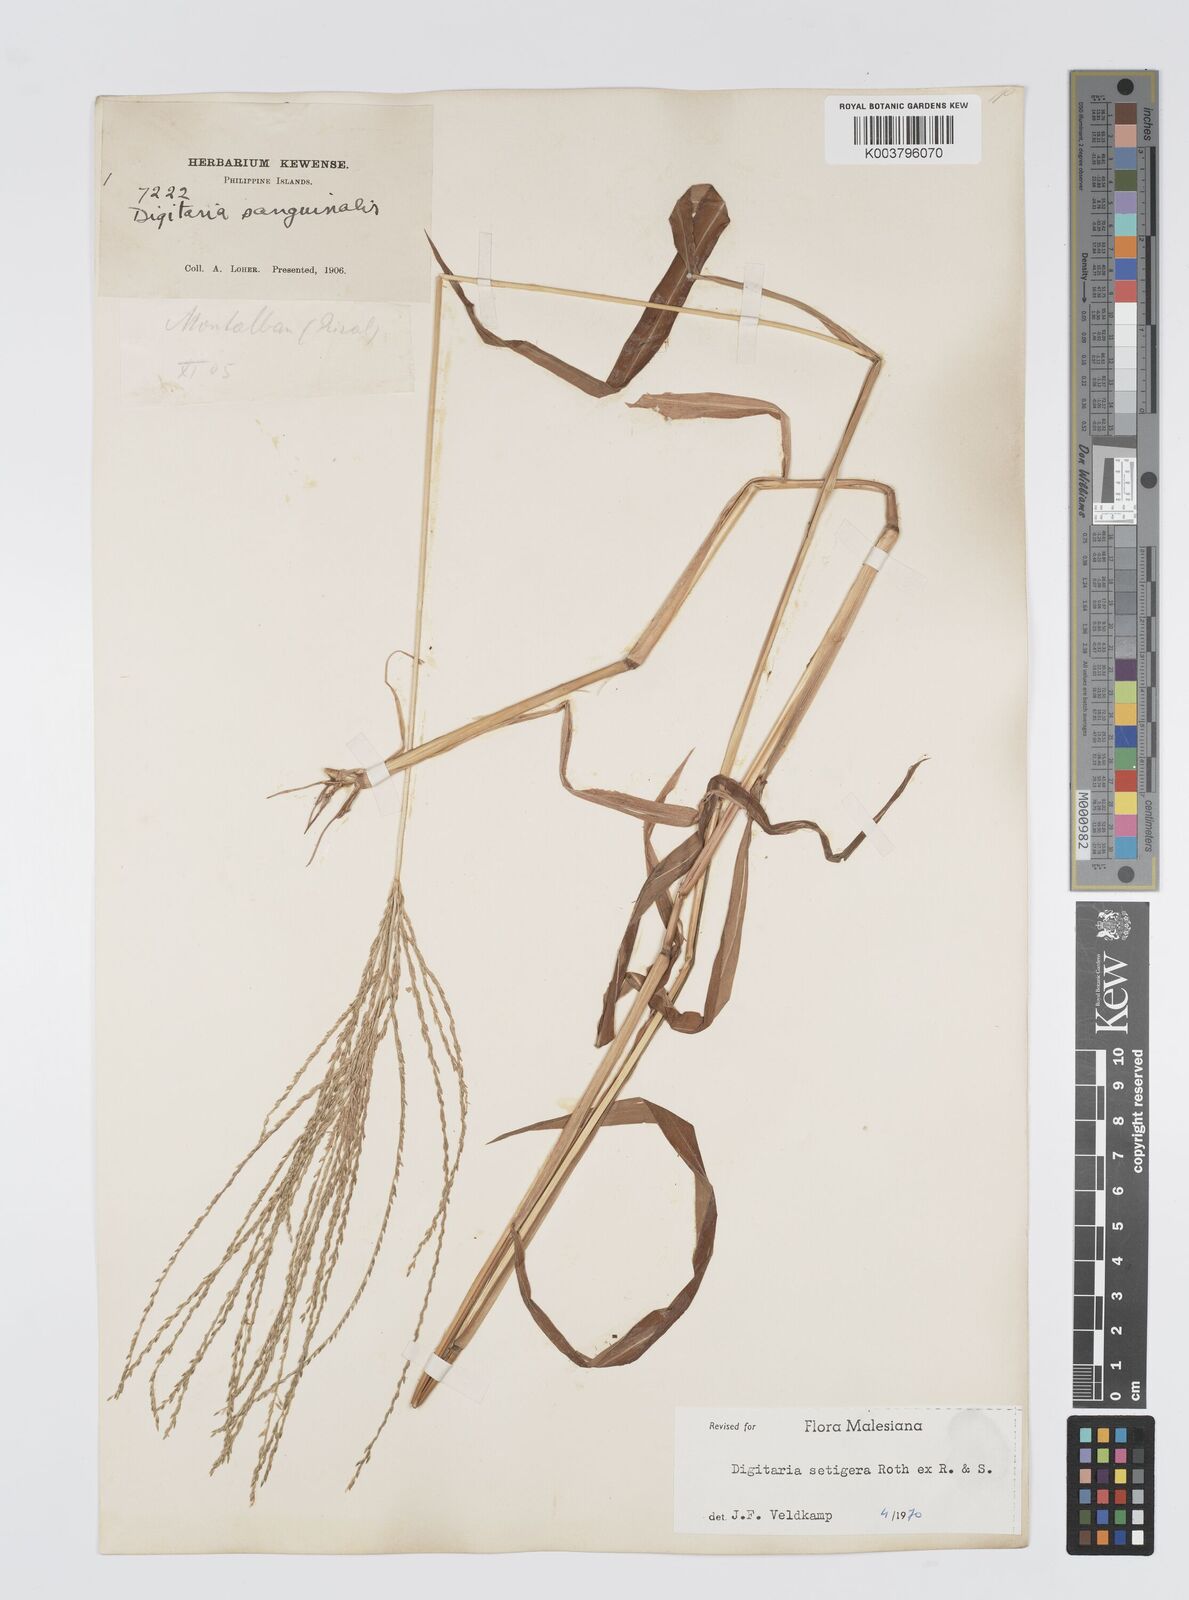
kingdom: Plantae
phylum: Tracheophyta
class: Liliopsida
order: Poales
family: Poaceae
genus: Digitaria
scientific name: Digitaria setigera
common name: East indian crabgrass
